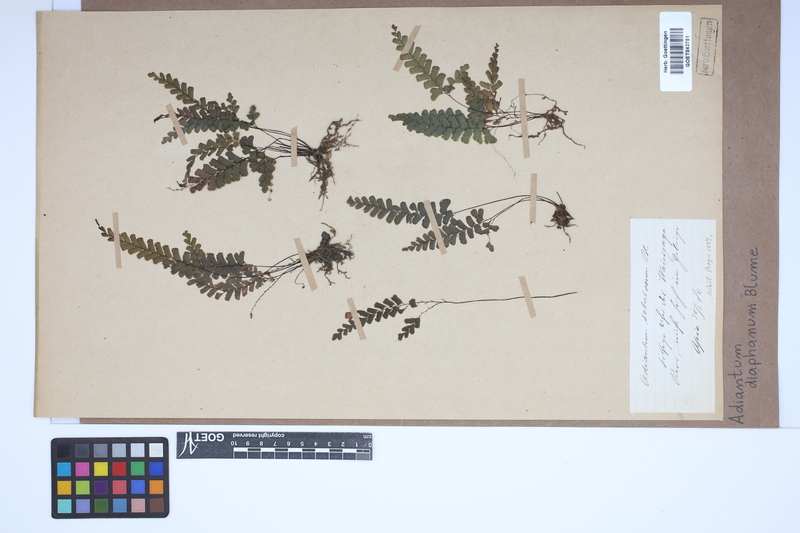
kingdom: Plantae
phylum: Tracheophyta
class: Polypodiopsida
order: Polypodiales
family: Pteridaceae
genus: Adiantum
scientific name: Adiantum diaphanum
